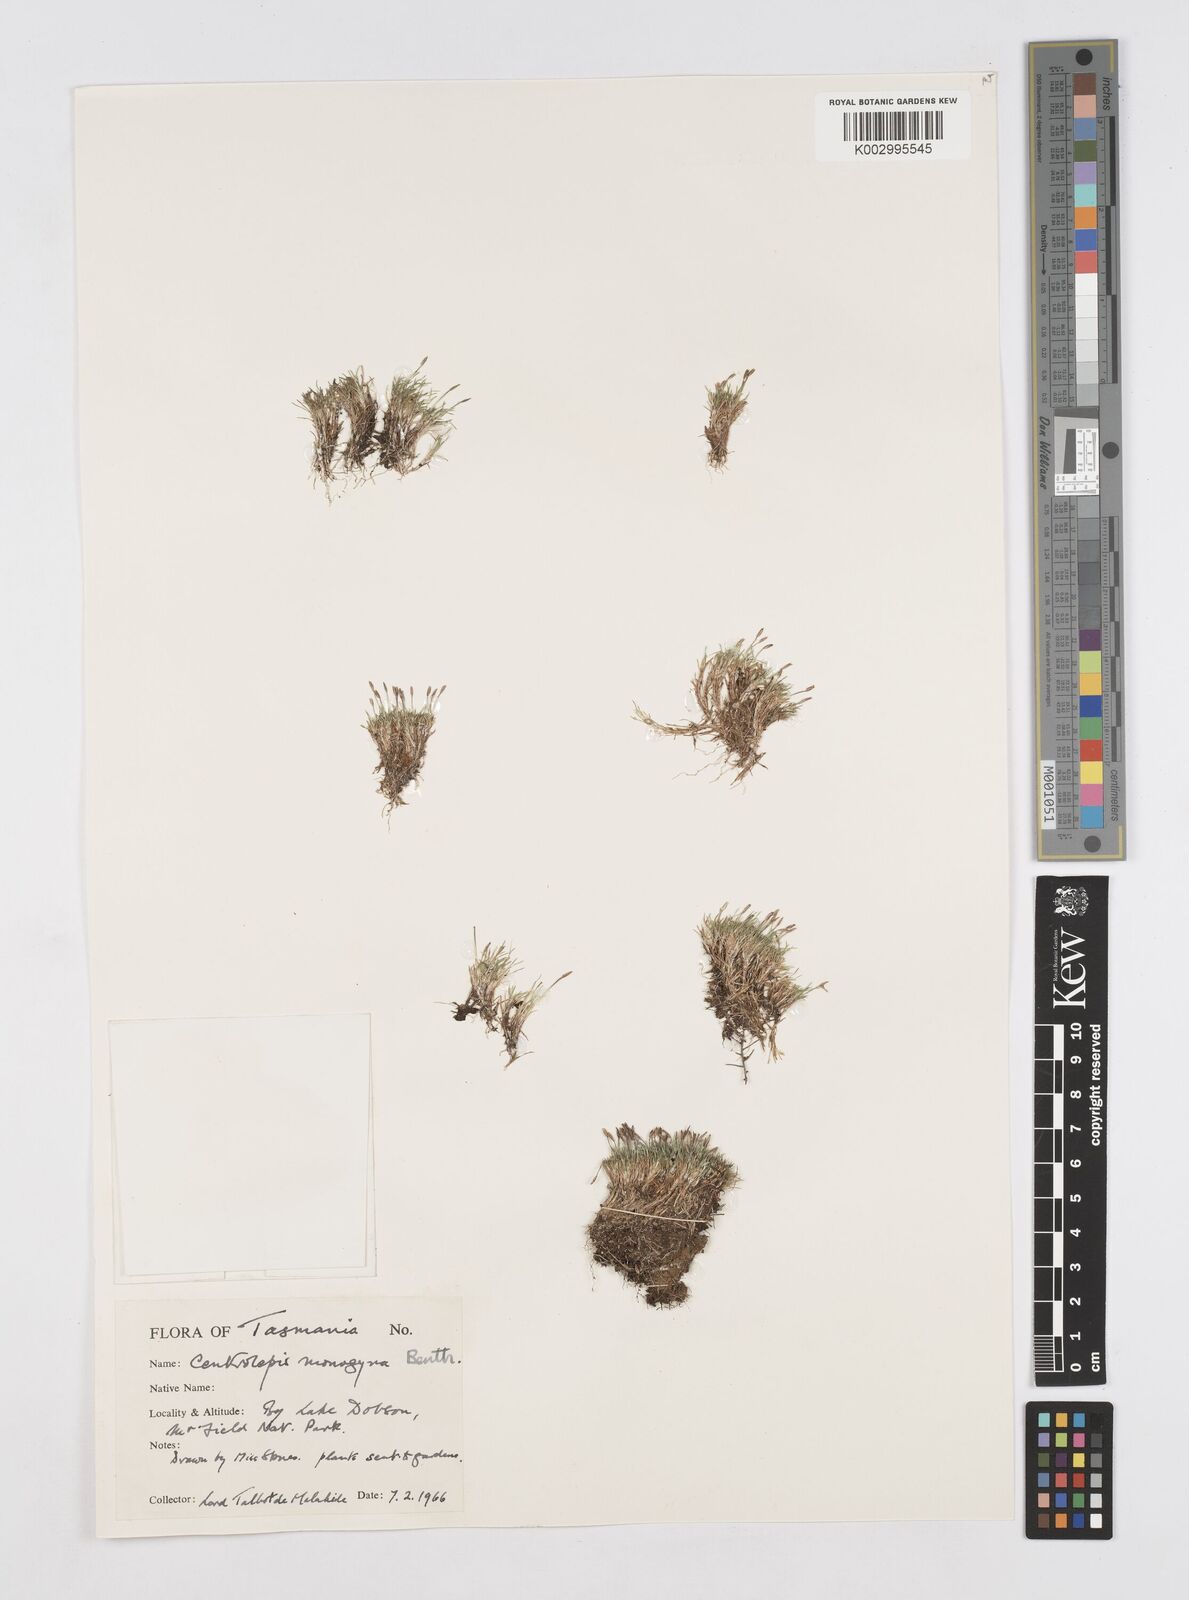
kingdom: Plantae
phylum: Tracheophyta
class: Liliopsida
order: Poales
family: Restionaceae
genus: Centrolepis
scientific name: Centrolepis monogyna
